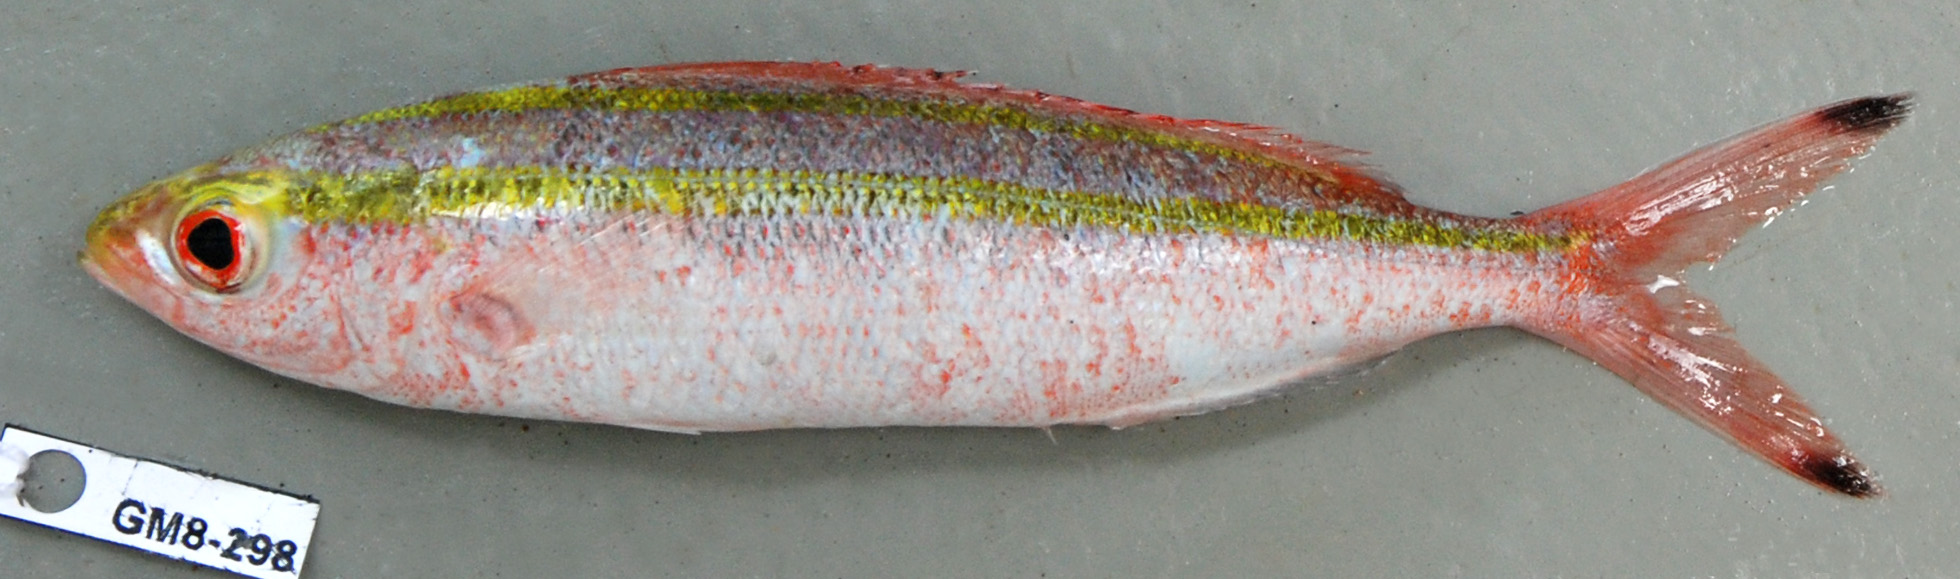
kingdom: Animalia
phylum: Chordata
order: Perciformes
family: Caesionidae
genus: Pterocaesio
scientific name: Pterocaesio marri
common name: Marr's fusilier
